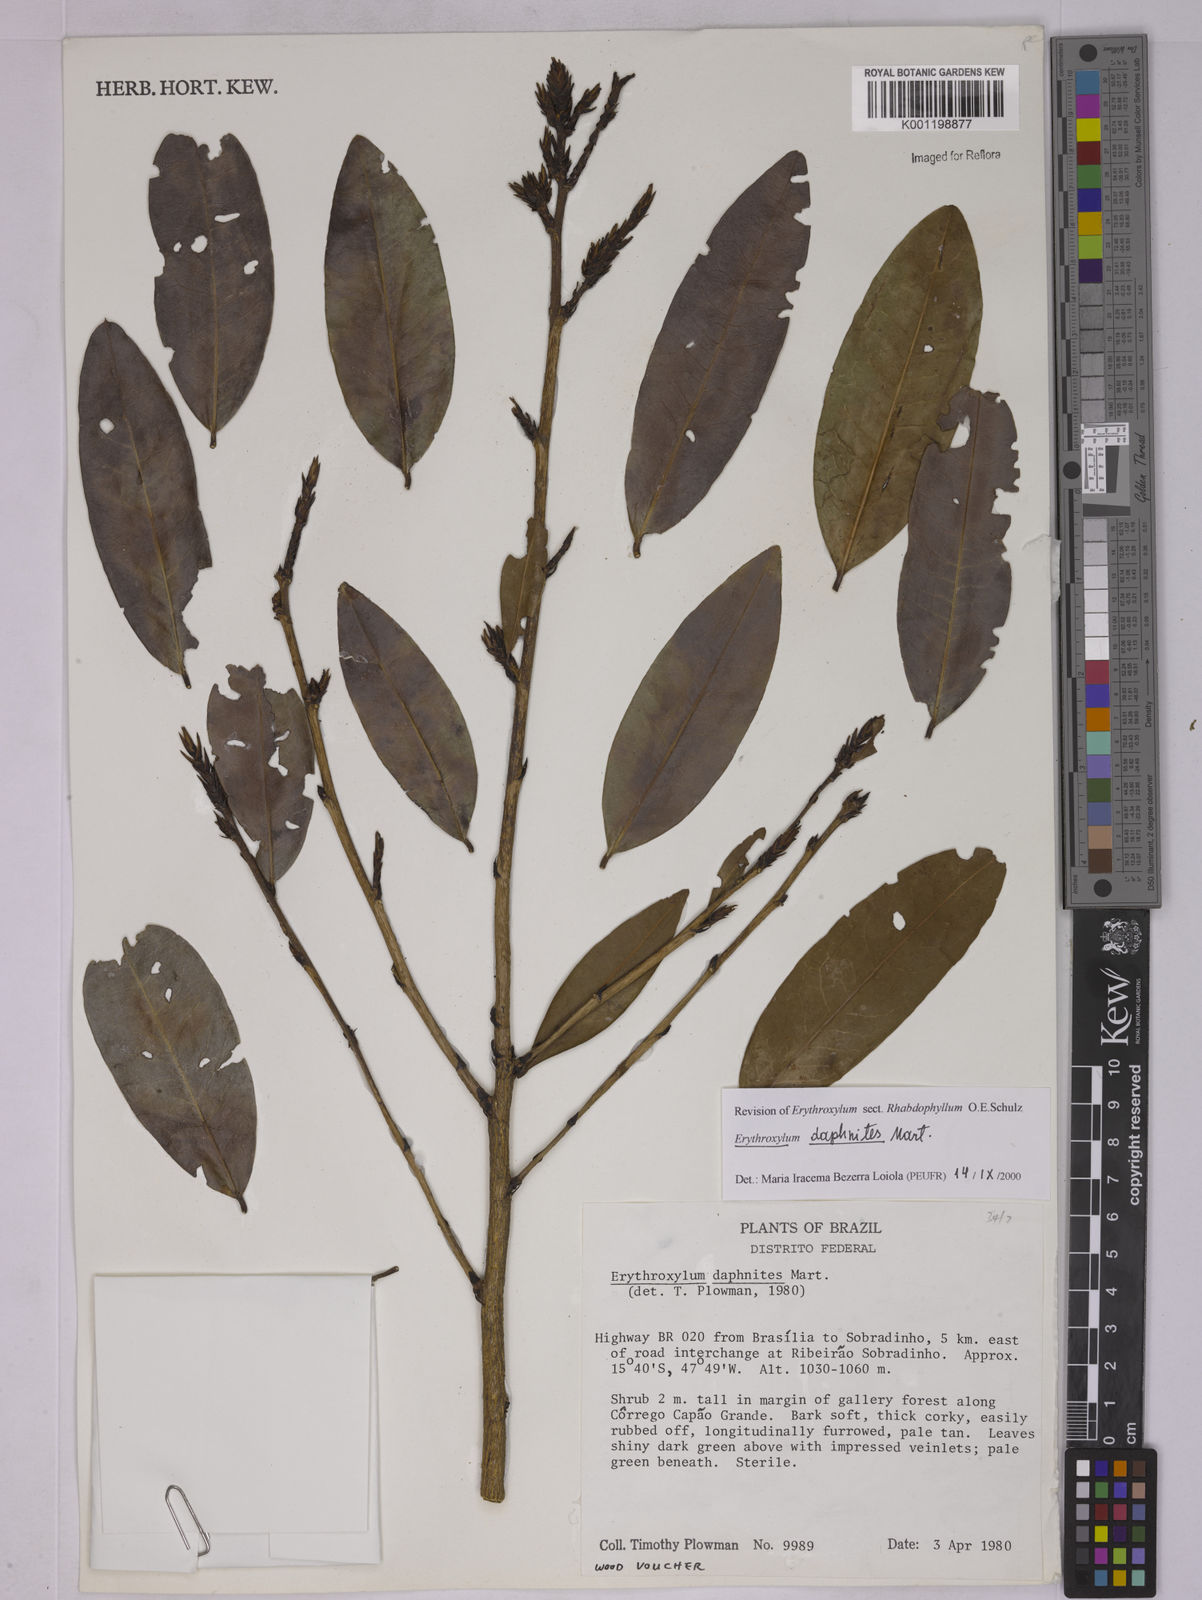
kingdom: Plantae
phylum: Tracheophyta
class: Magnoliopsida
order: Malpighiales
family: Erythroxylaceae
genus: Erythroxylum
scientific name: Erythroxylum daphnites
